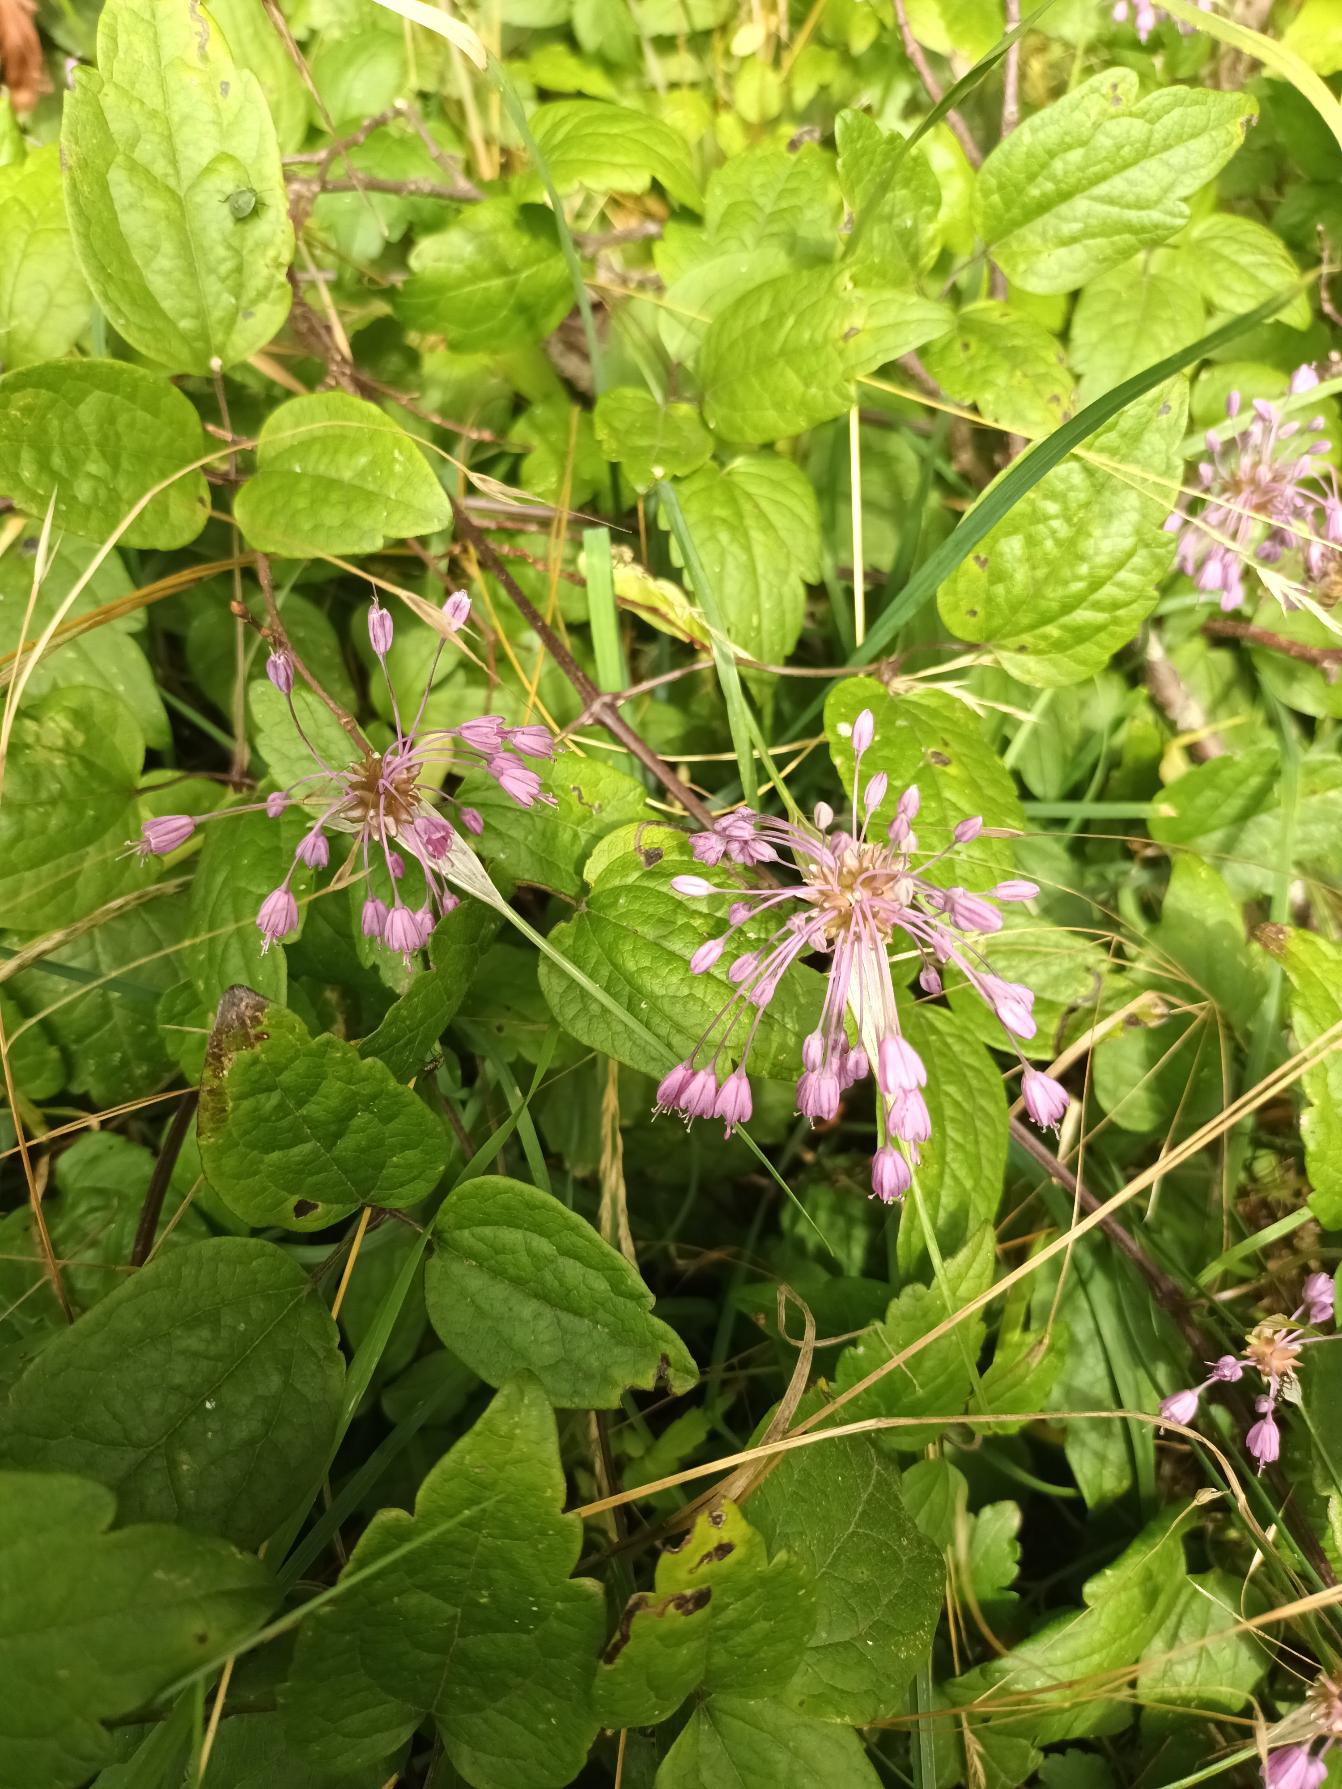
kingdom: Plantae
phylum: Tracheophyta
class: Liliopsida
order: Asparagales
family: Amaryllidaceae
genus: Allium
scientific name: Allium carinatum
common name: Kølet løg
